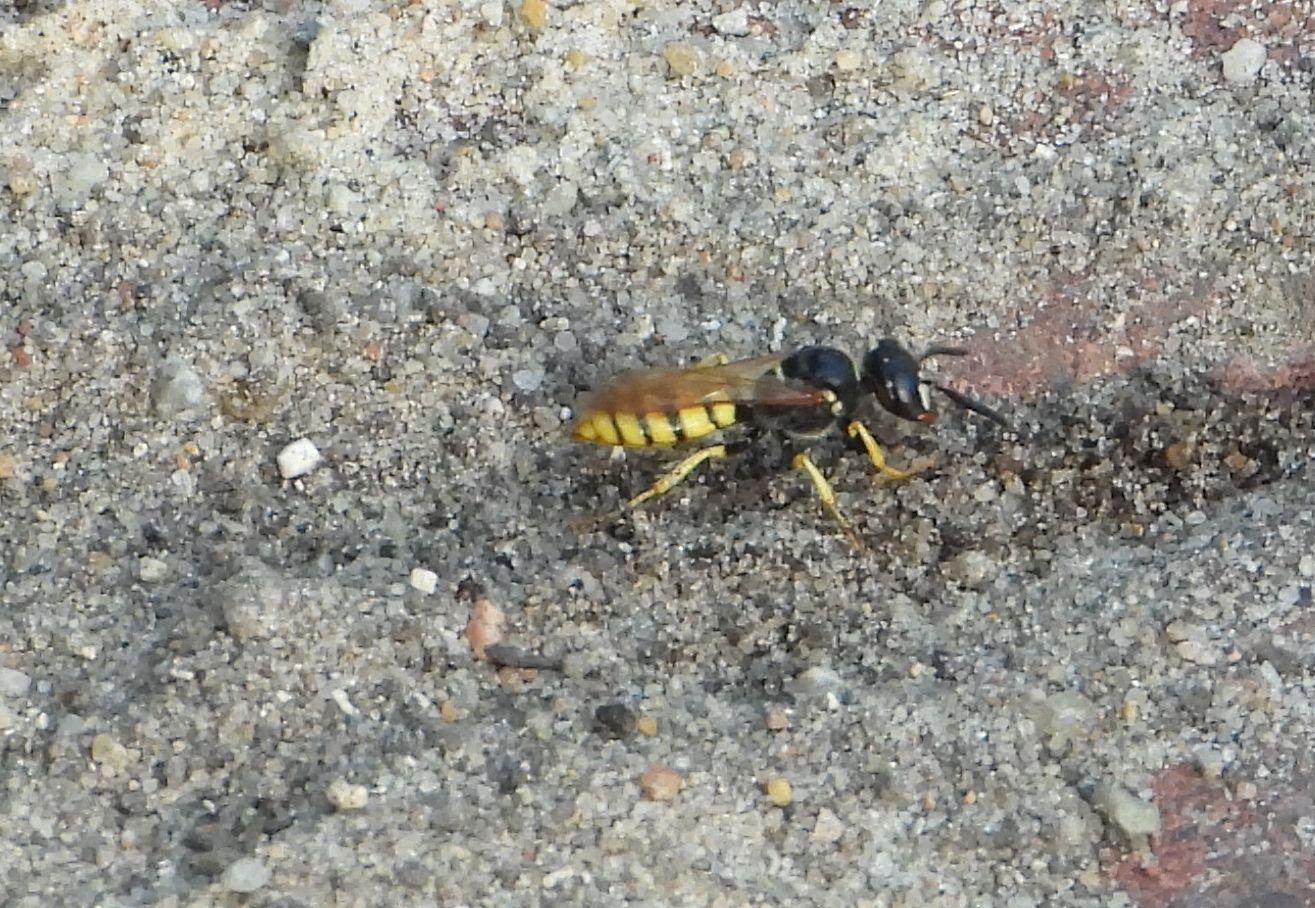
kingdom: Animalia
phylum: Arthropoda
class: Insecta
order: Hymenoptera
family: Crabronidae
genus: Philanthus
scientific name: Philanthus triangulum
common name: Biulv
